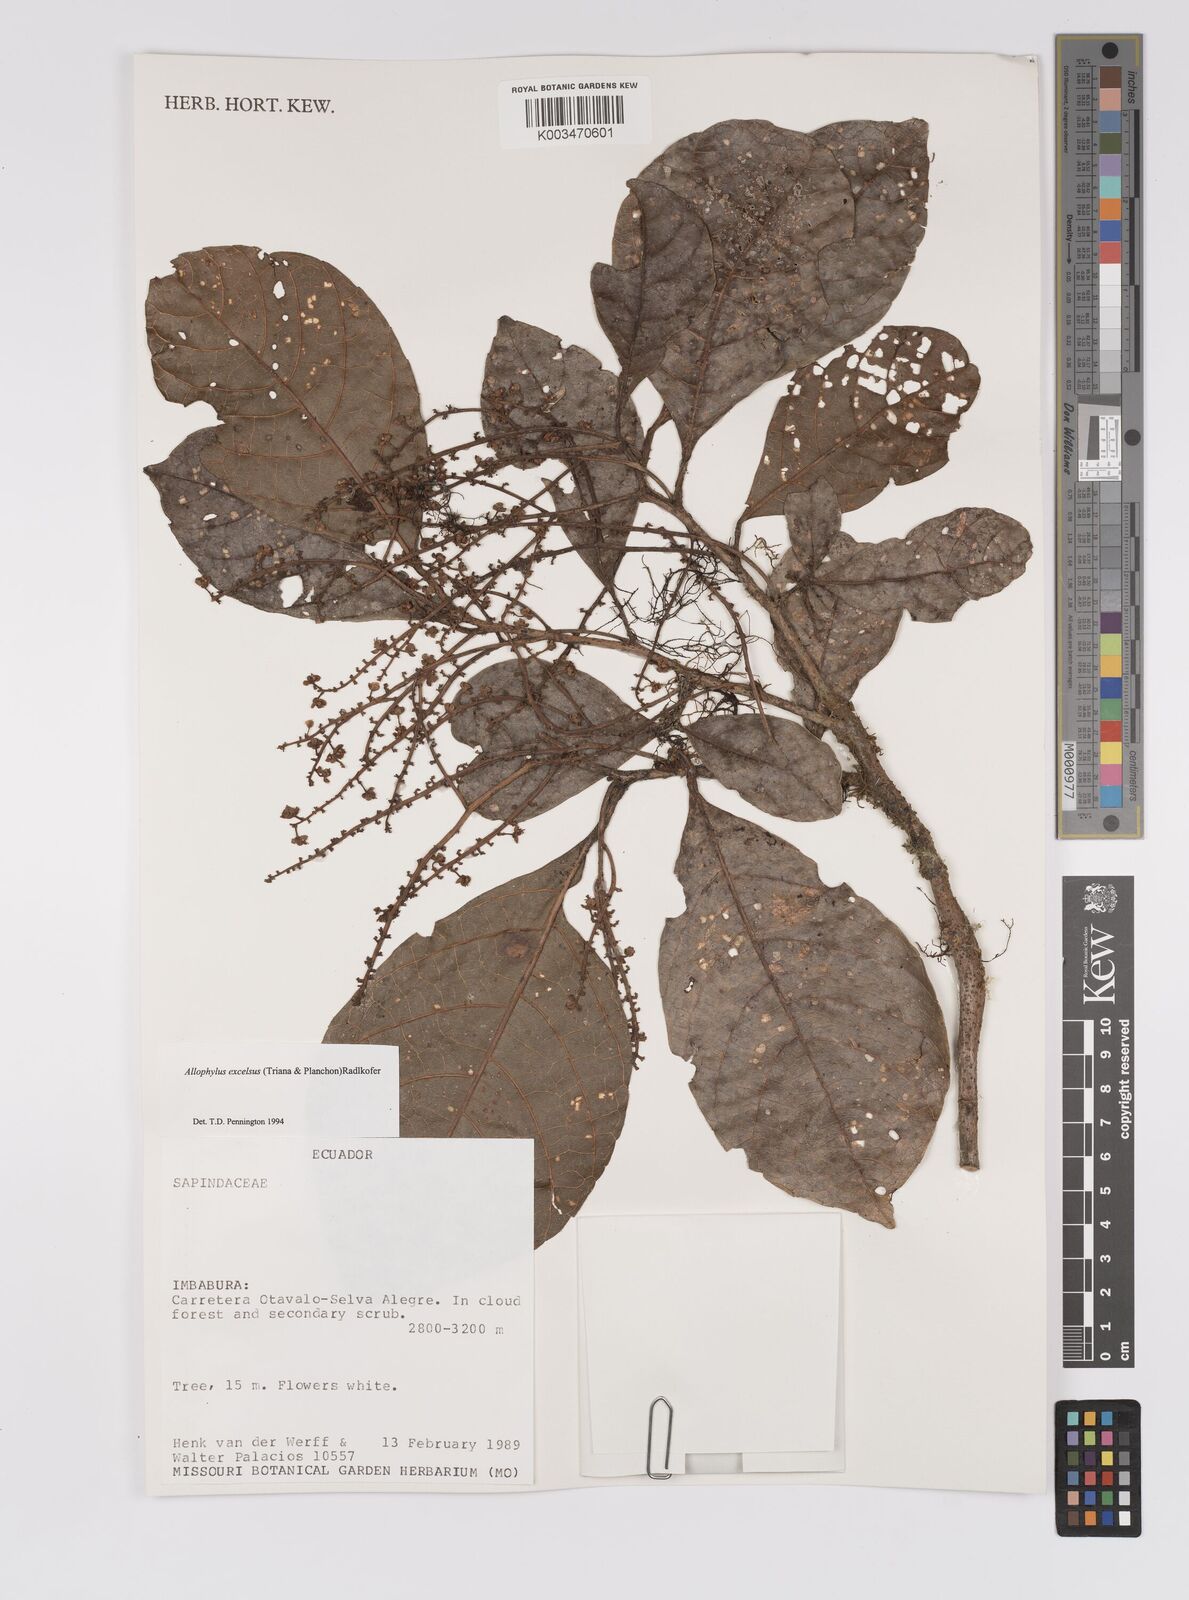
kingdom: Plantae
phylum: Tracheophyta
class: Magnoliopsida
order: Sapindales
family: Sapindaceae
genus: Allophylus
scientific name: Allophylus excelsus
